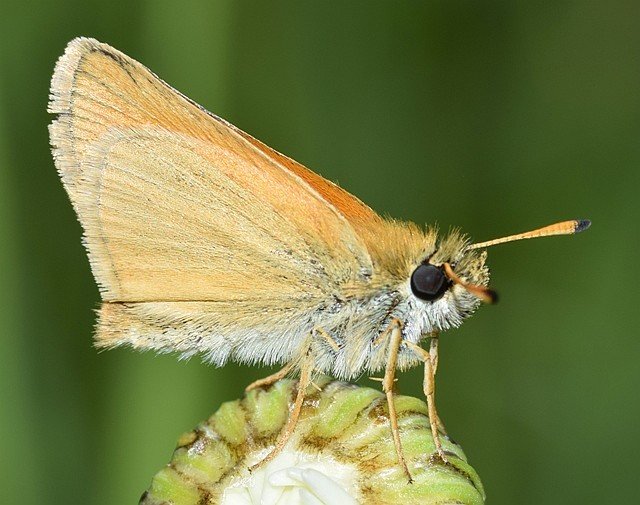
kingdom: Animalia
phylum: Arthropoda
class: Insecta
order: Lepidoptera
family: Hesperiidae
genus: Thymelicus
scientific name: Thymelicus lineola
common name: European Skipper
